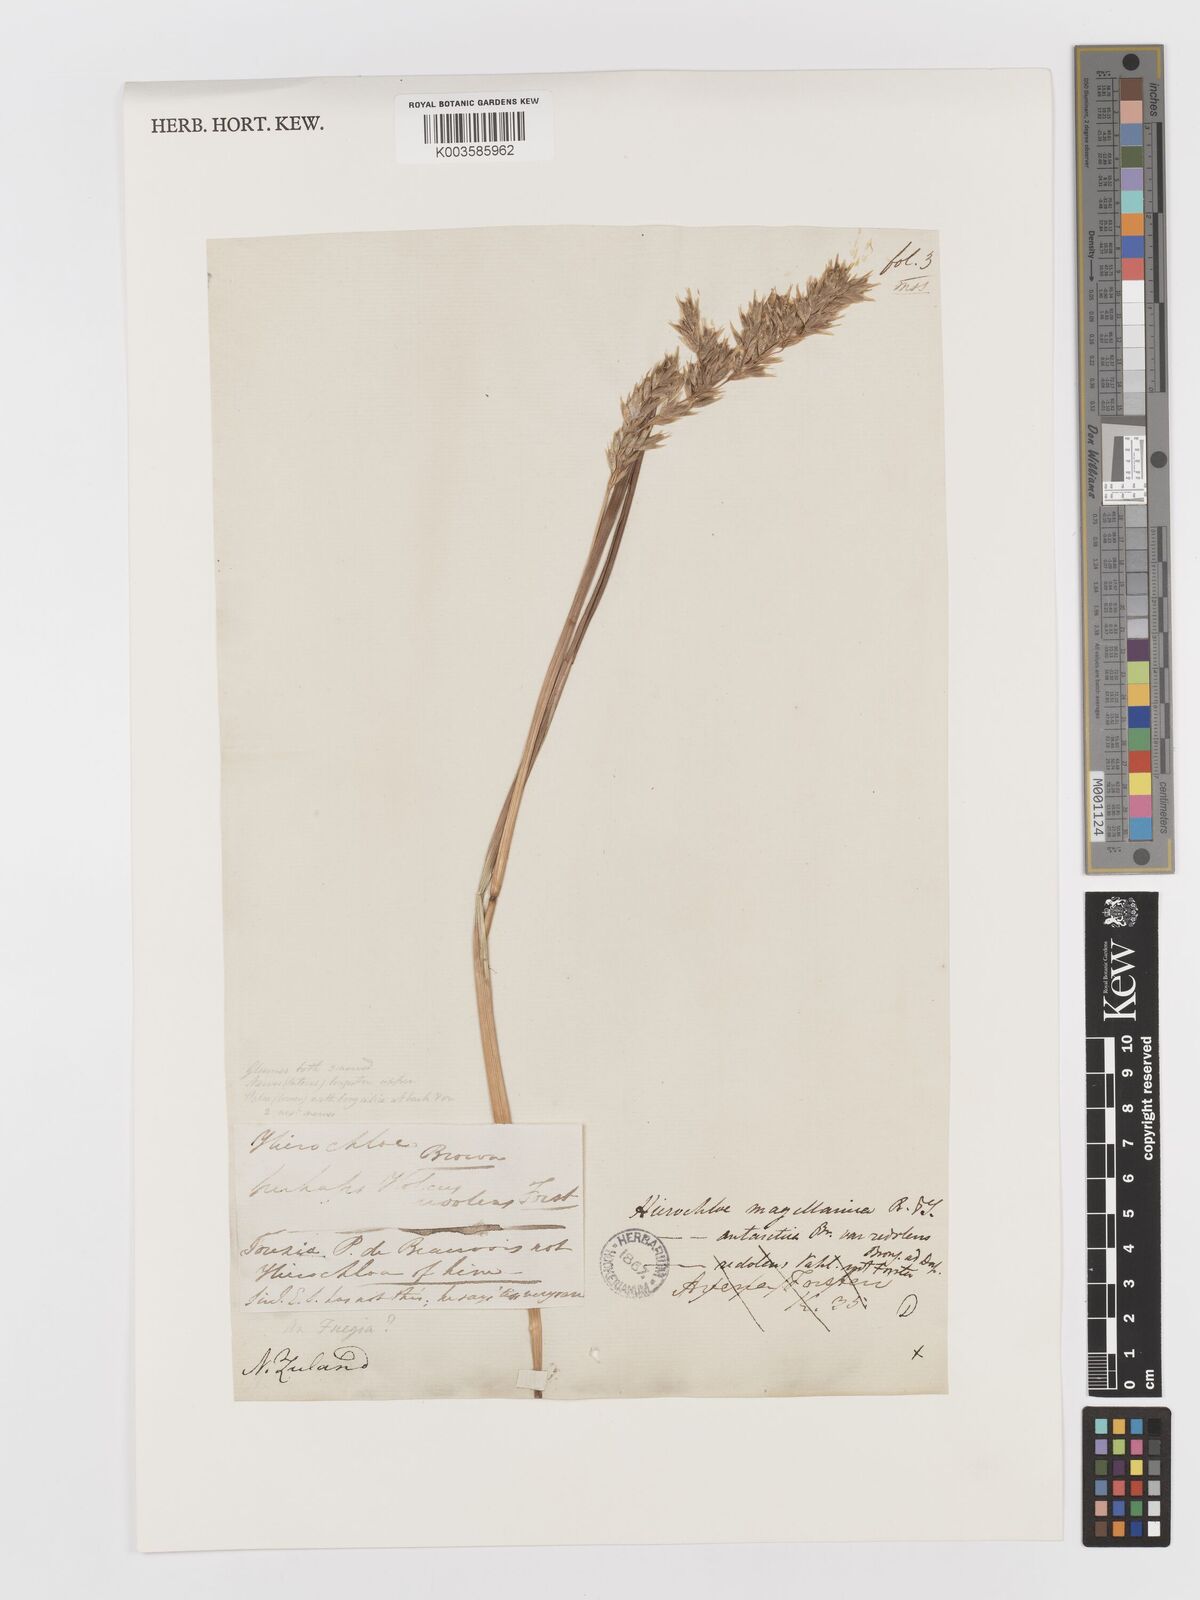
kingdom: Plantae
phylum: Tracheophyta
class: Liliopsida
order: Poales
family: Poaceae
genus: Anthoxanthum
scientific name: Anthoxanthum redolens
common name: Sweet holy grass
